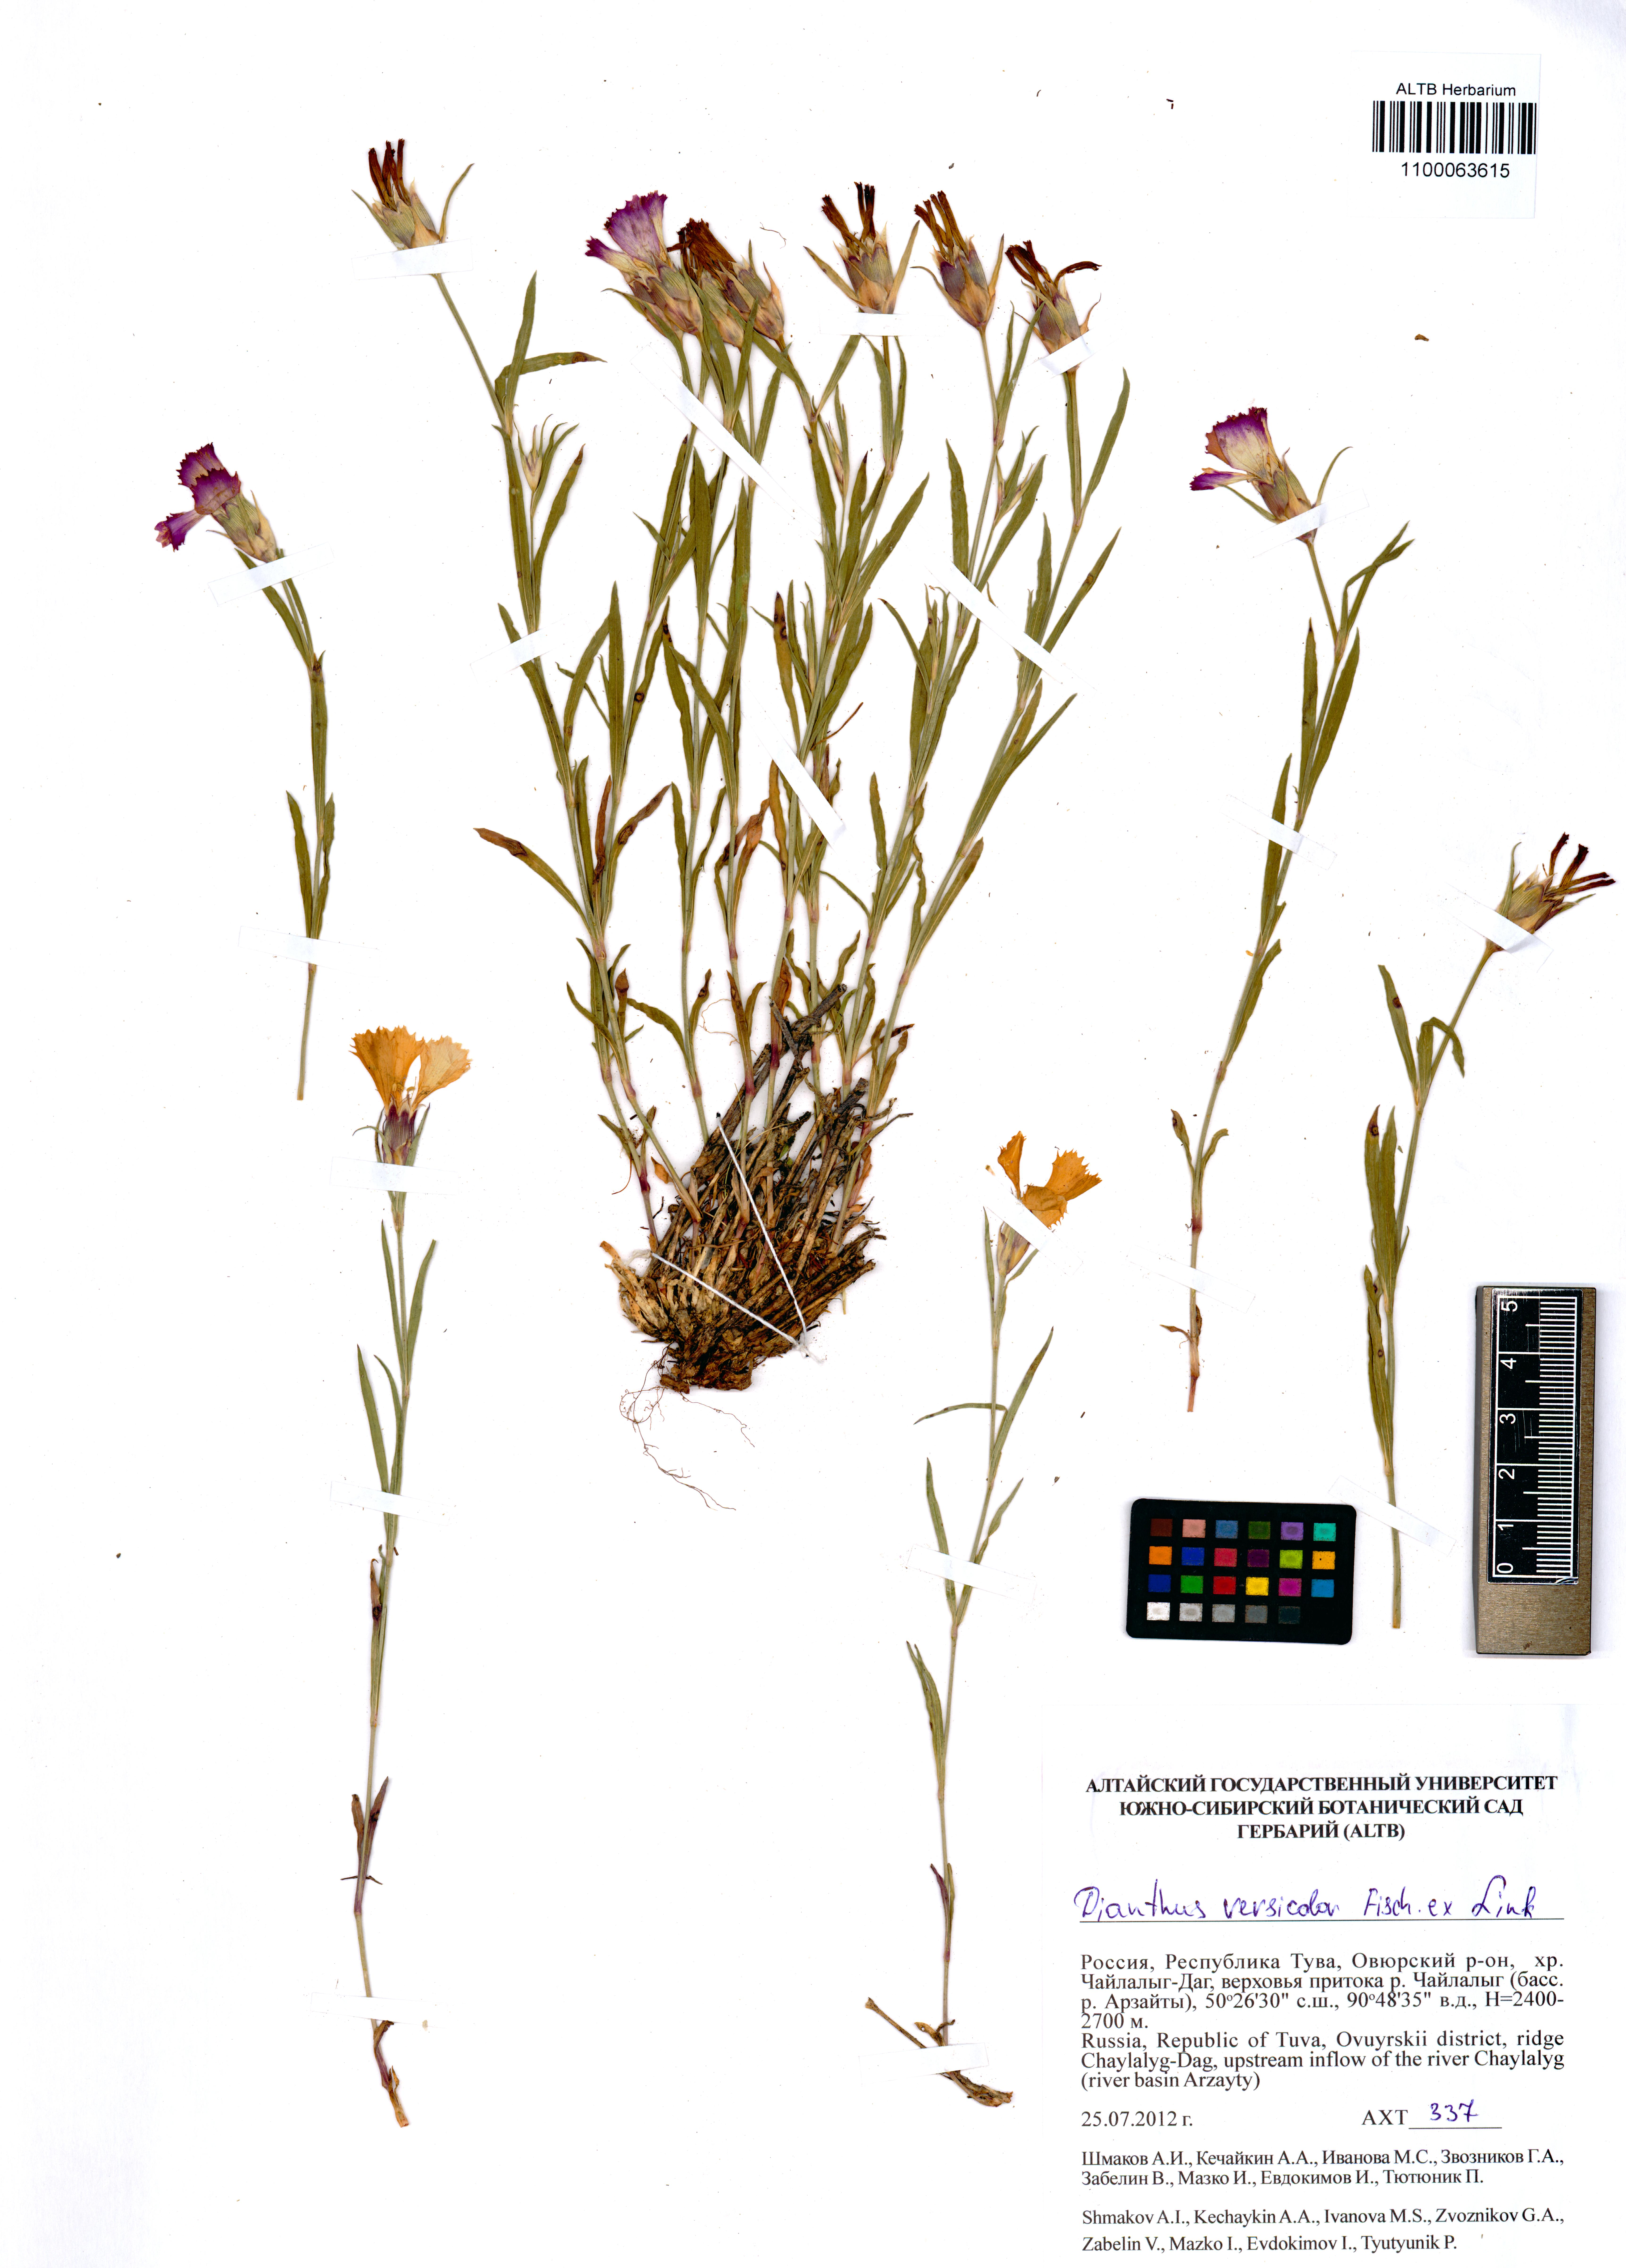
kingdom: Plantae
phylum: Tracheophyta
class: Magnoliopsida
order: Caryophyllales
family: Caryophyllaceae
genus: Dianthus
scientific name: Dianthus chinensis
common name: Rainbow pink
